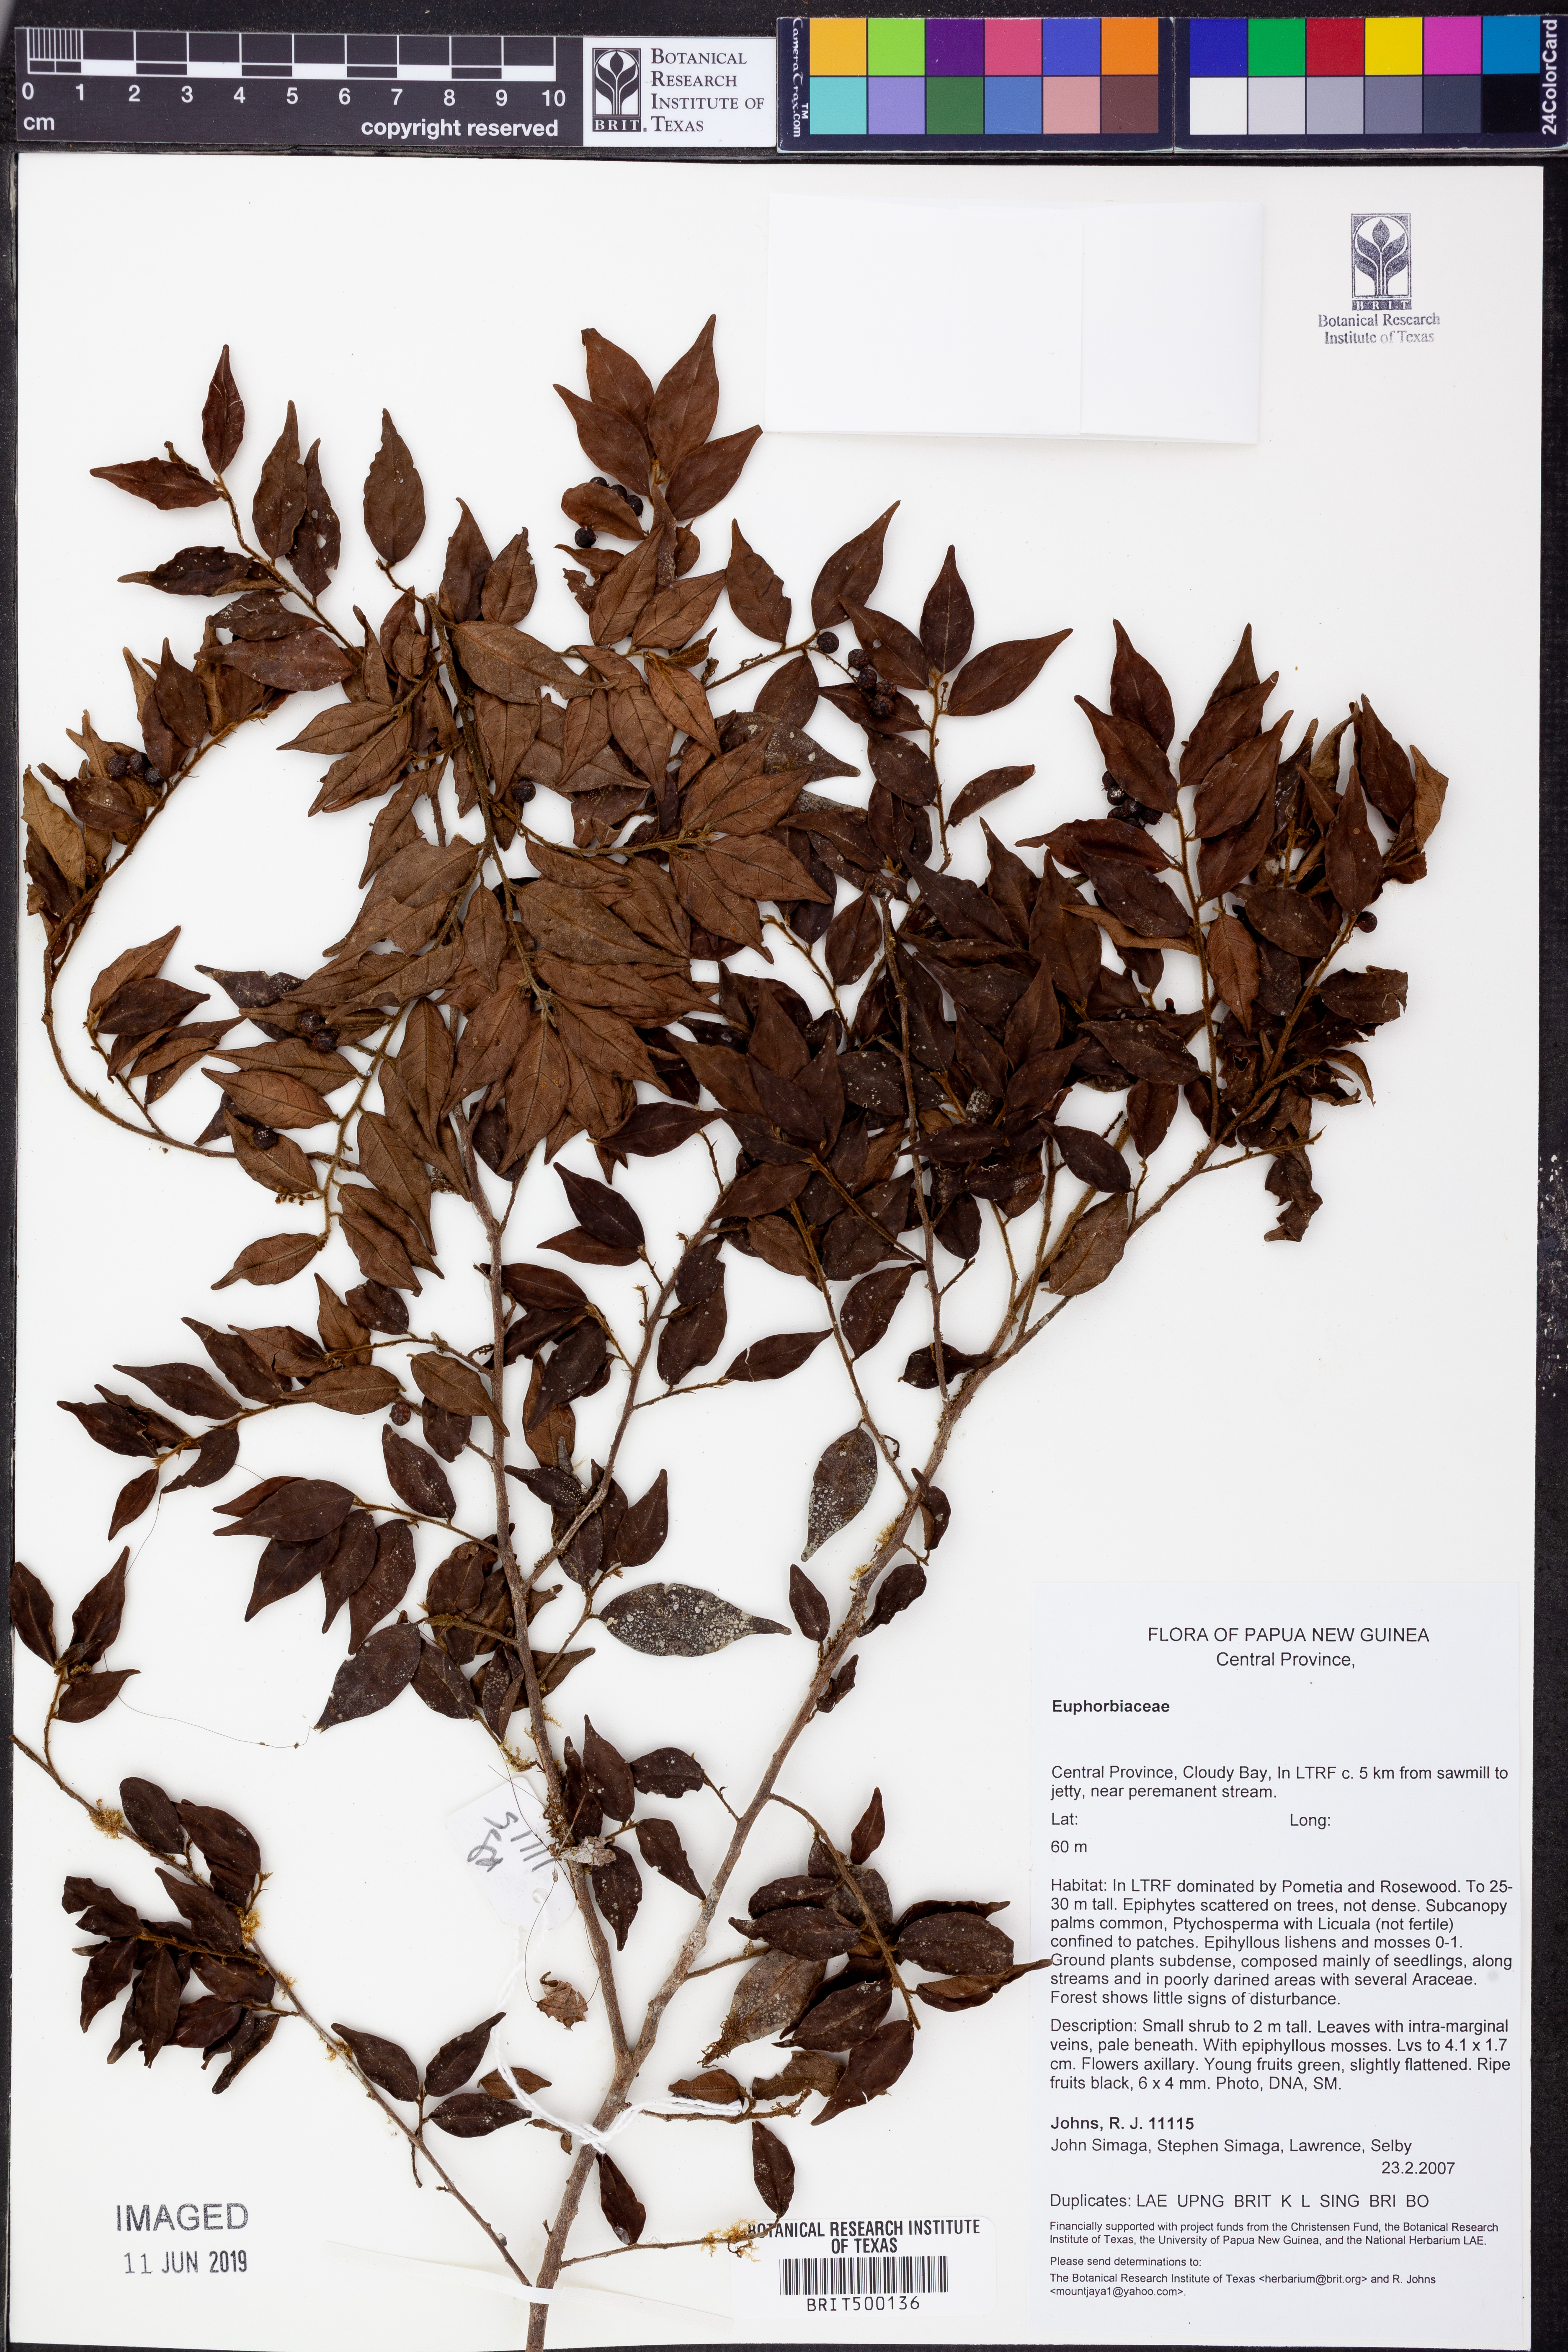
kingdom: Plantae
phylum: Tracheophyta
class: Magnoliopsida
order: Malpighiales
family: Euphorbiaceae
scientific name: Euphorbiaceae
